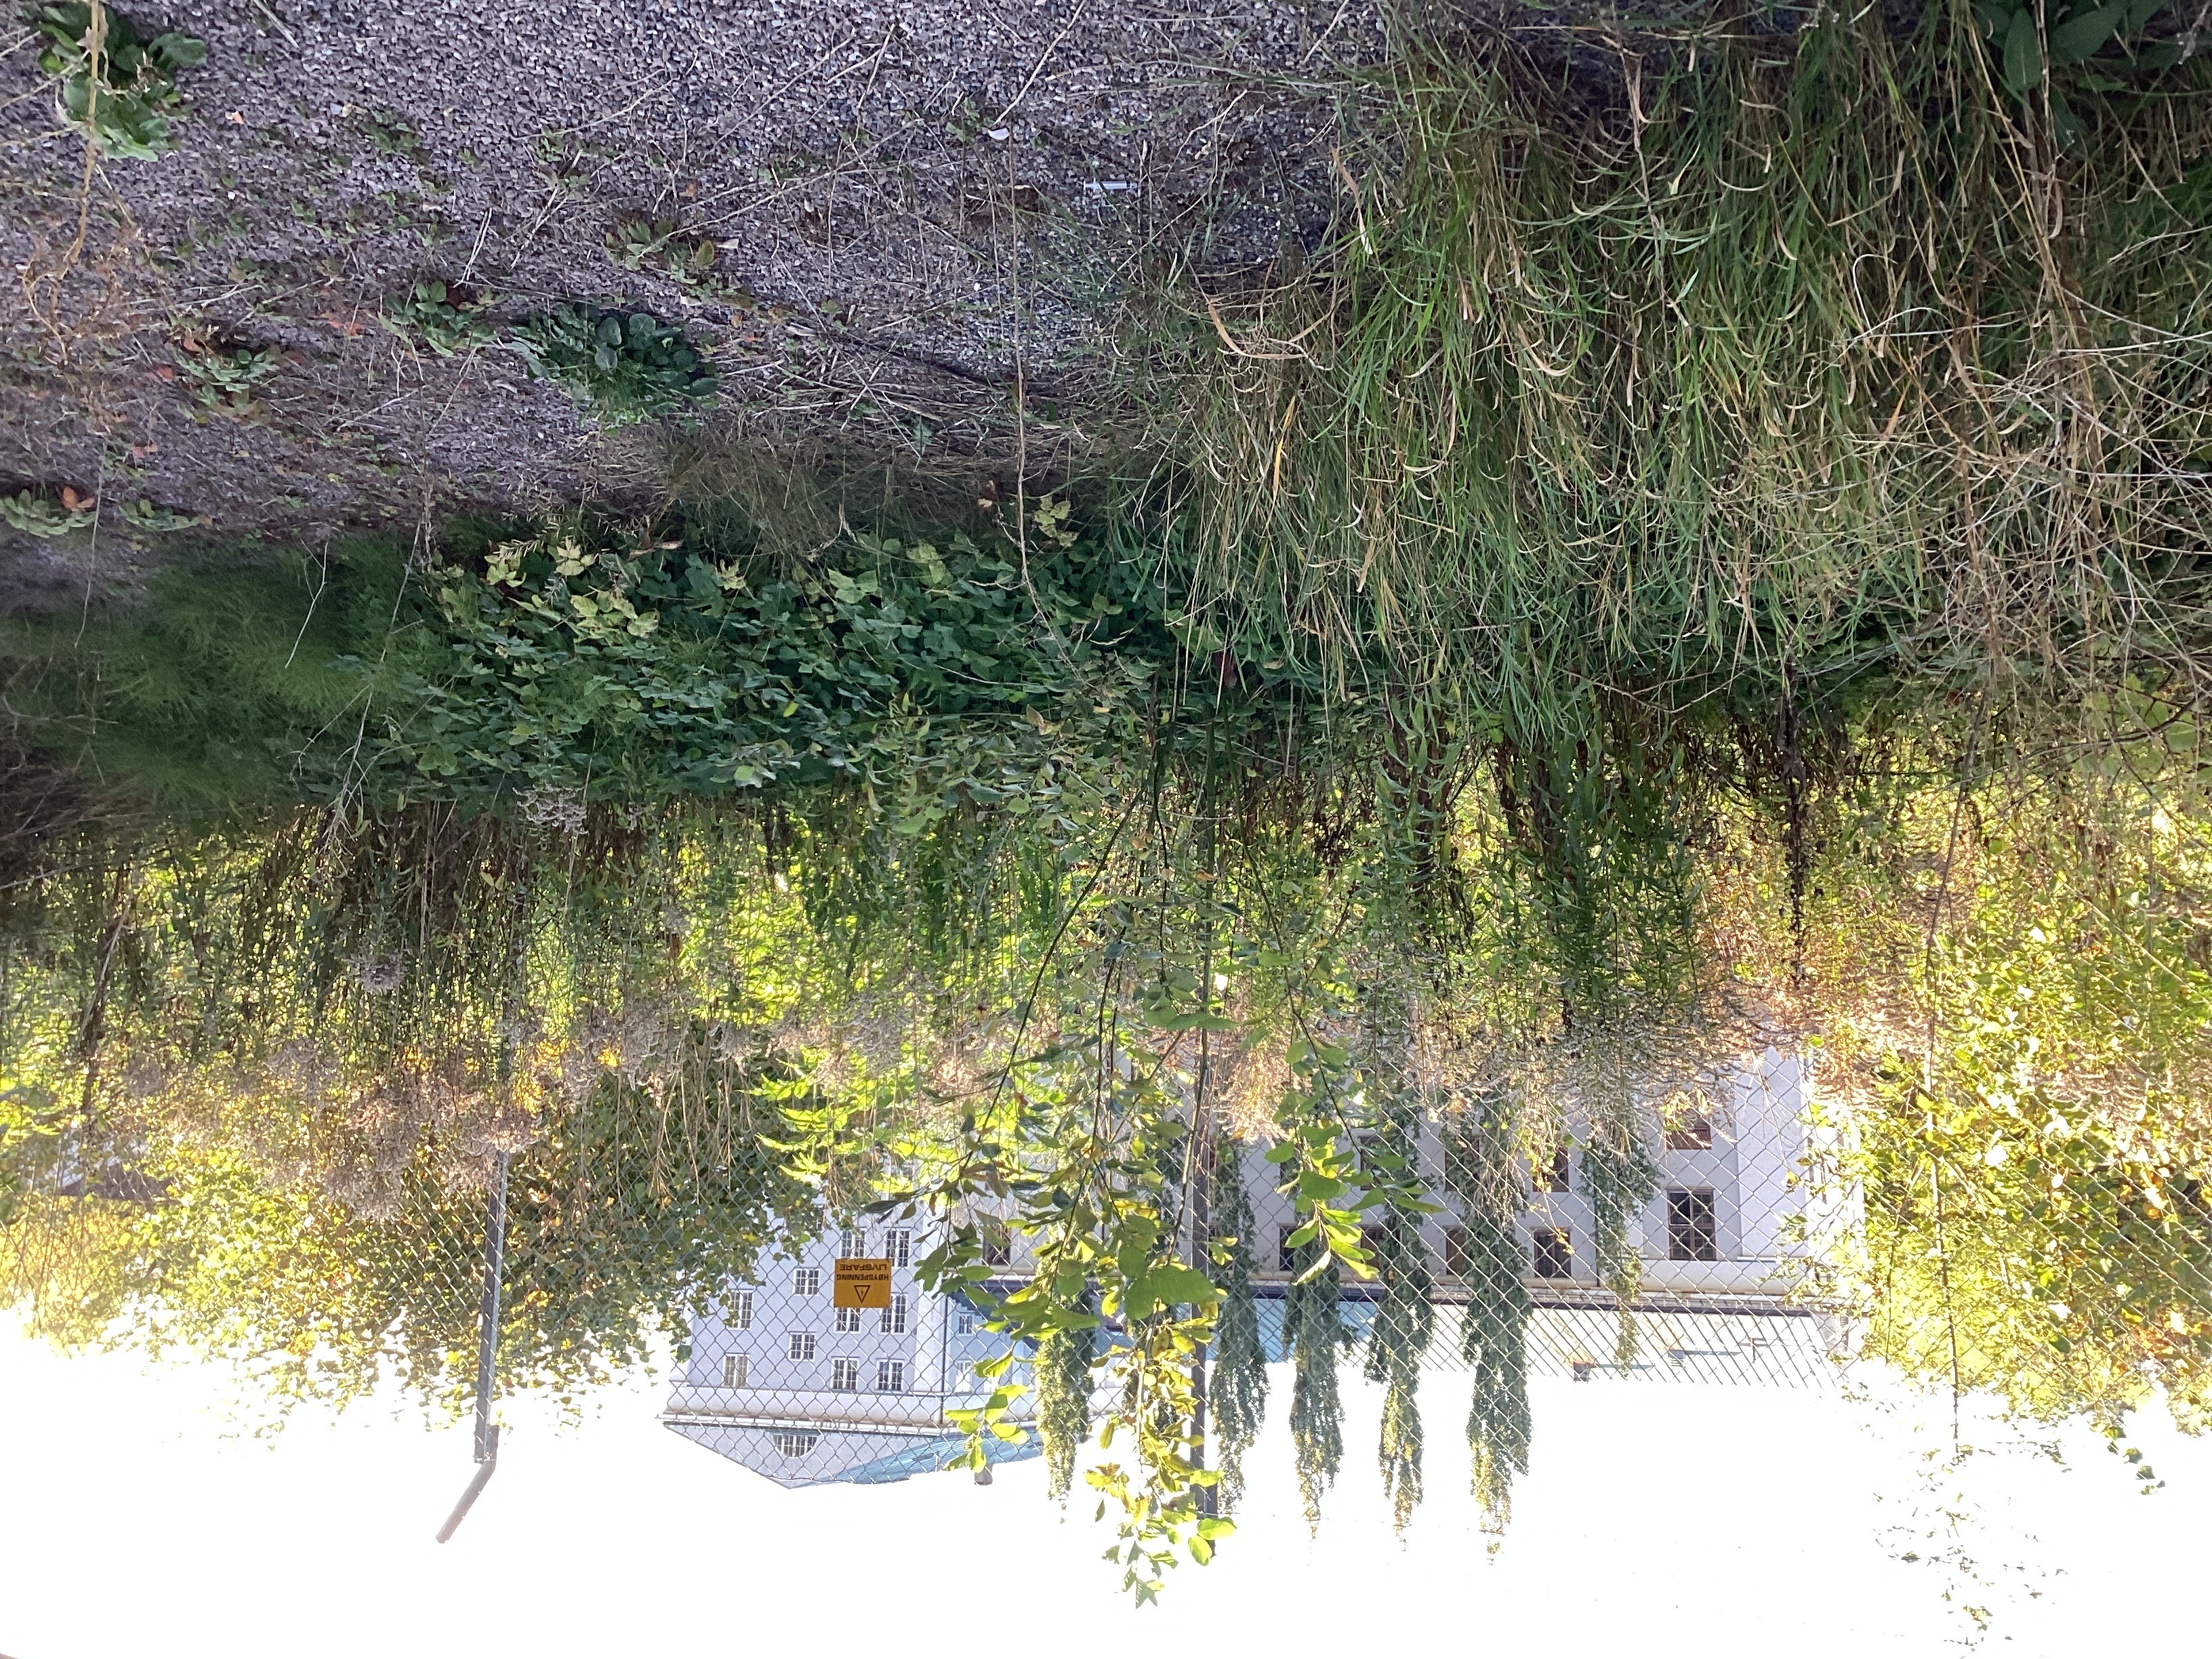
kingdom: Plantae
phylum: Tracheophyta
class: Magnoliopsida
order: Asterales
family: Asteraceae
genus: Solidago
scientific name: Solidago canadensis
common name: kanadagullris
